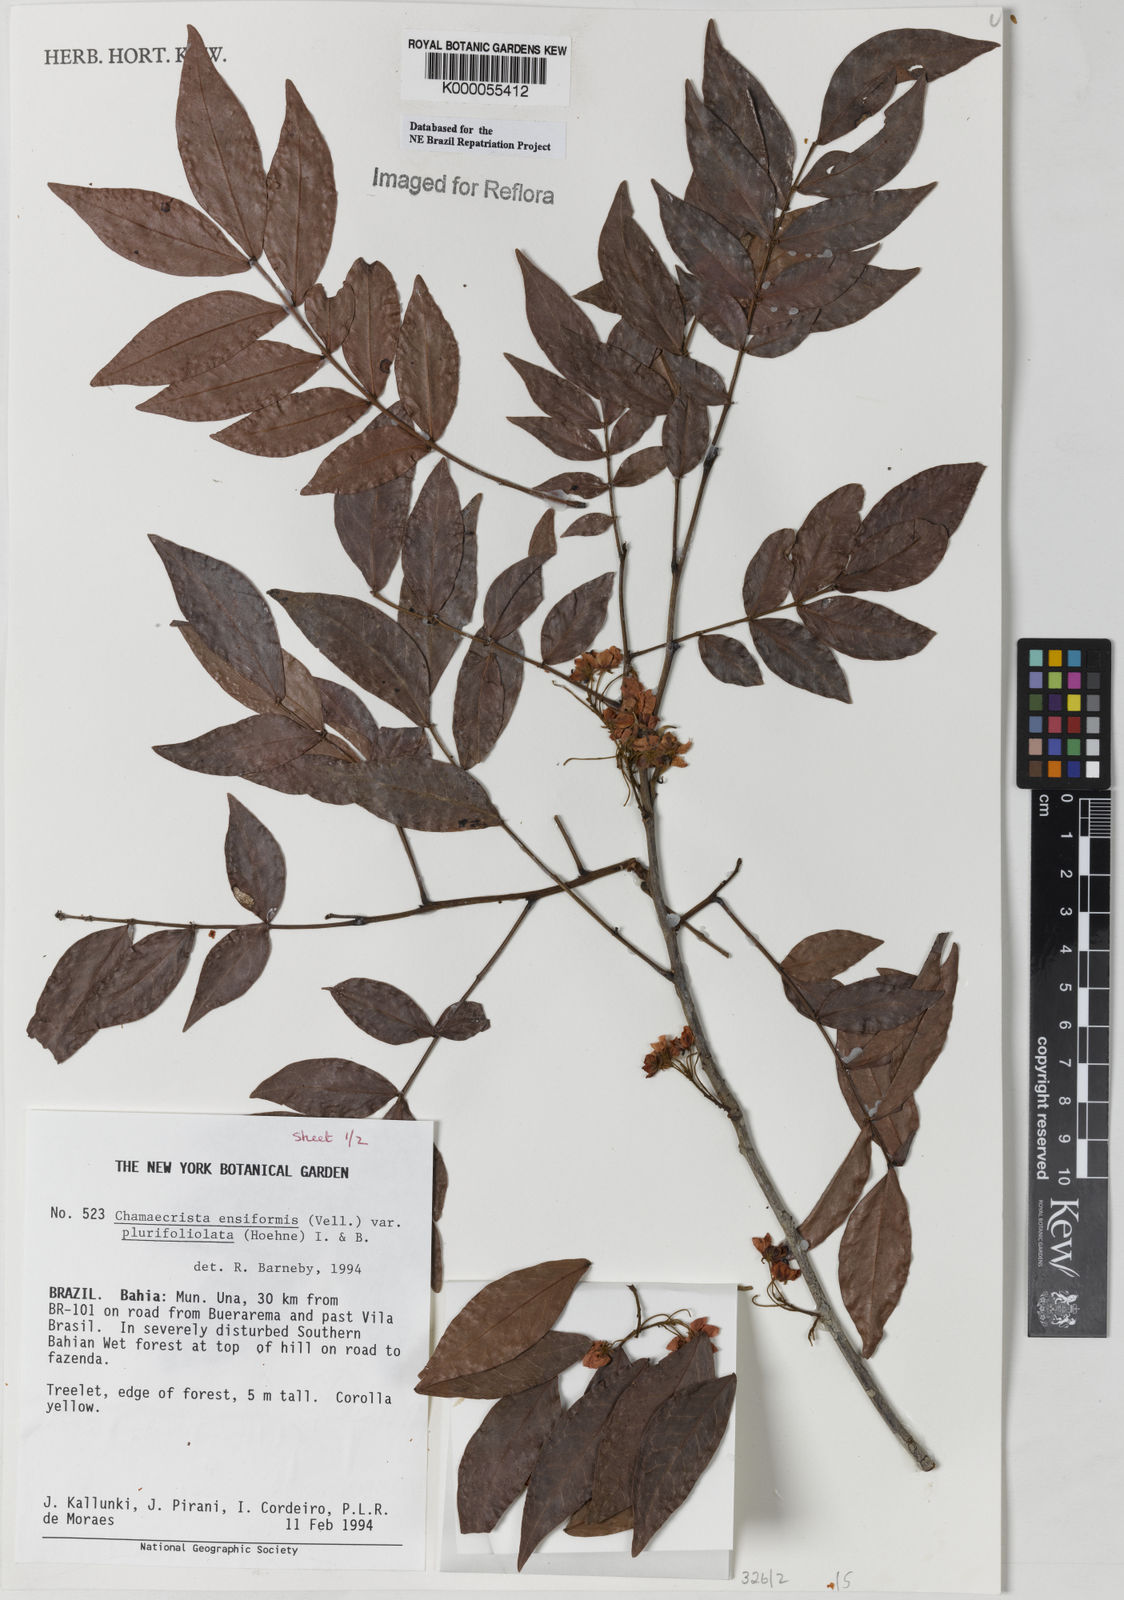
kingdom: Plantae
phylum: Tracheophyta
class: Magnoliopsida
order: Fabales
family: Fabaceae
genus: Chamaecrista
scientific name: Chamaecrista ensiformis
